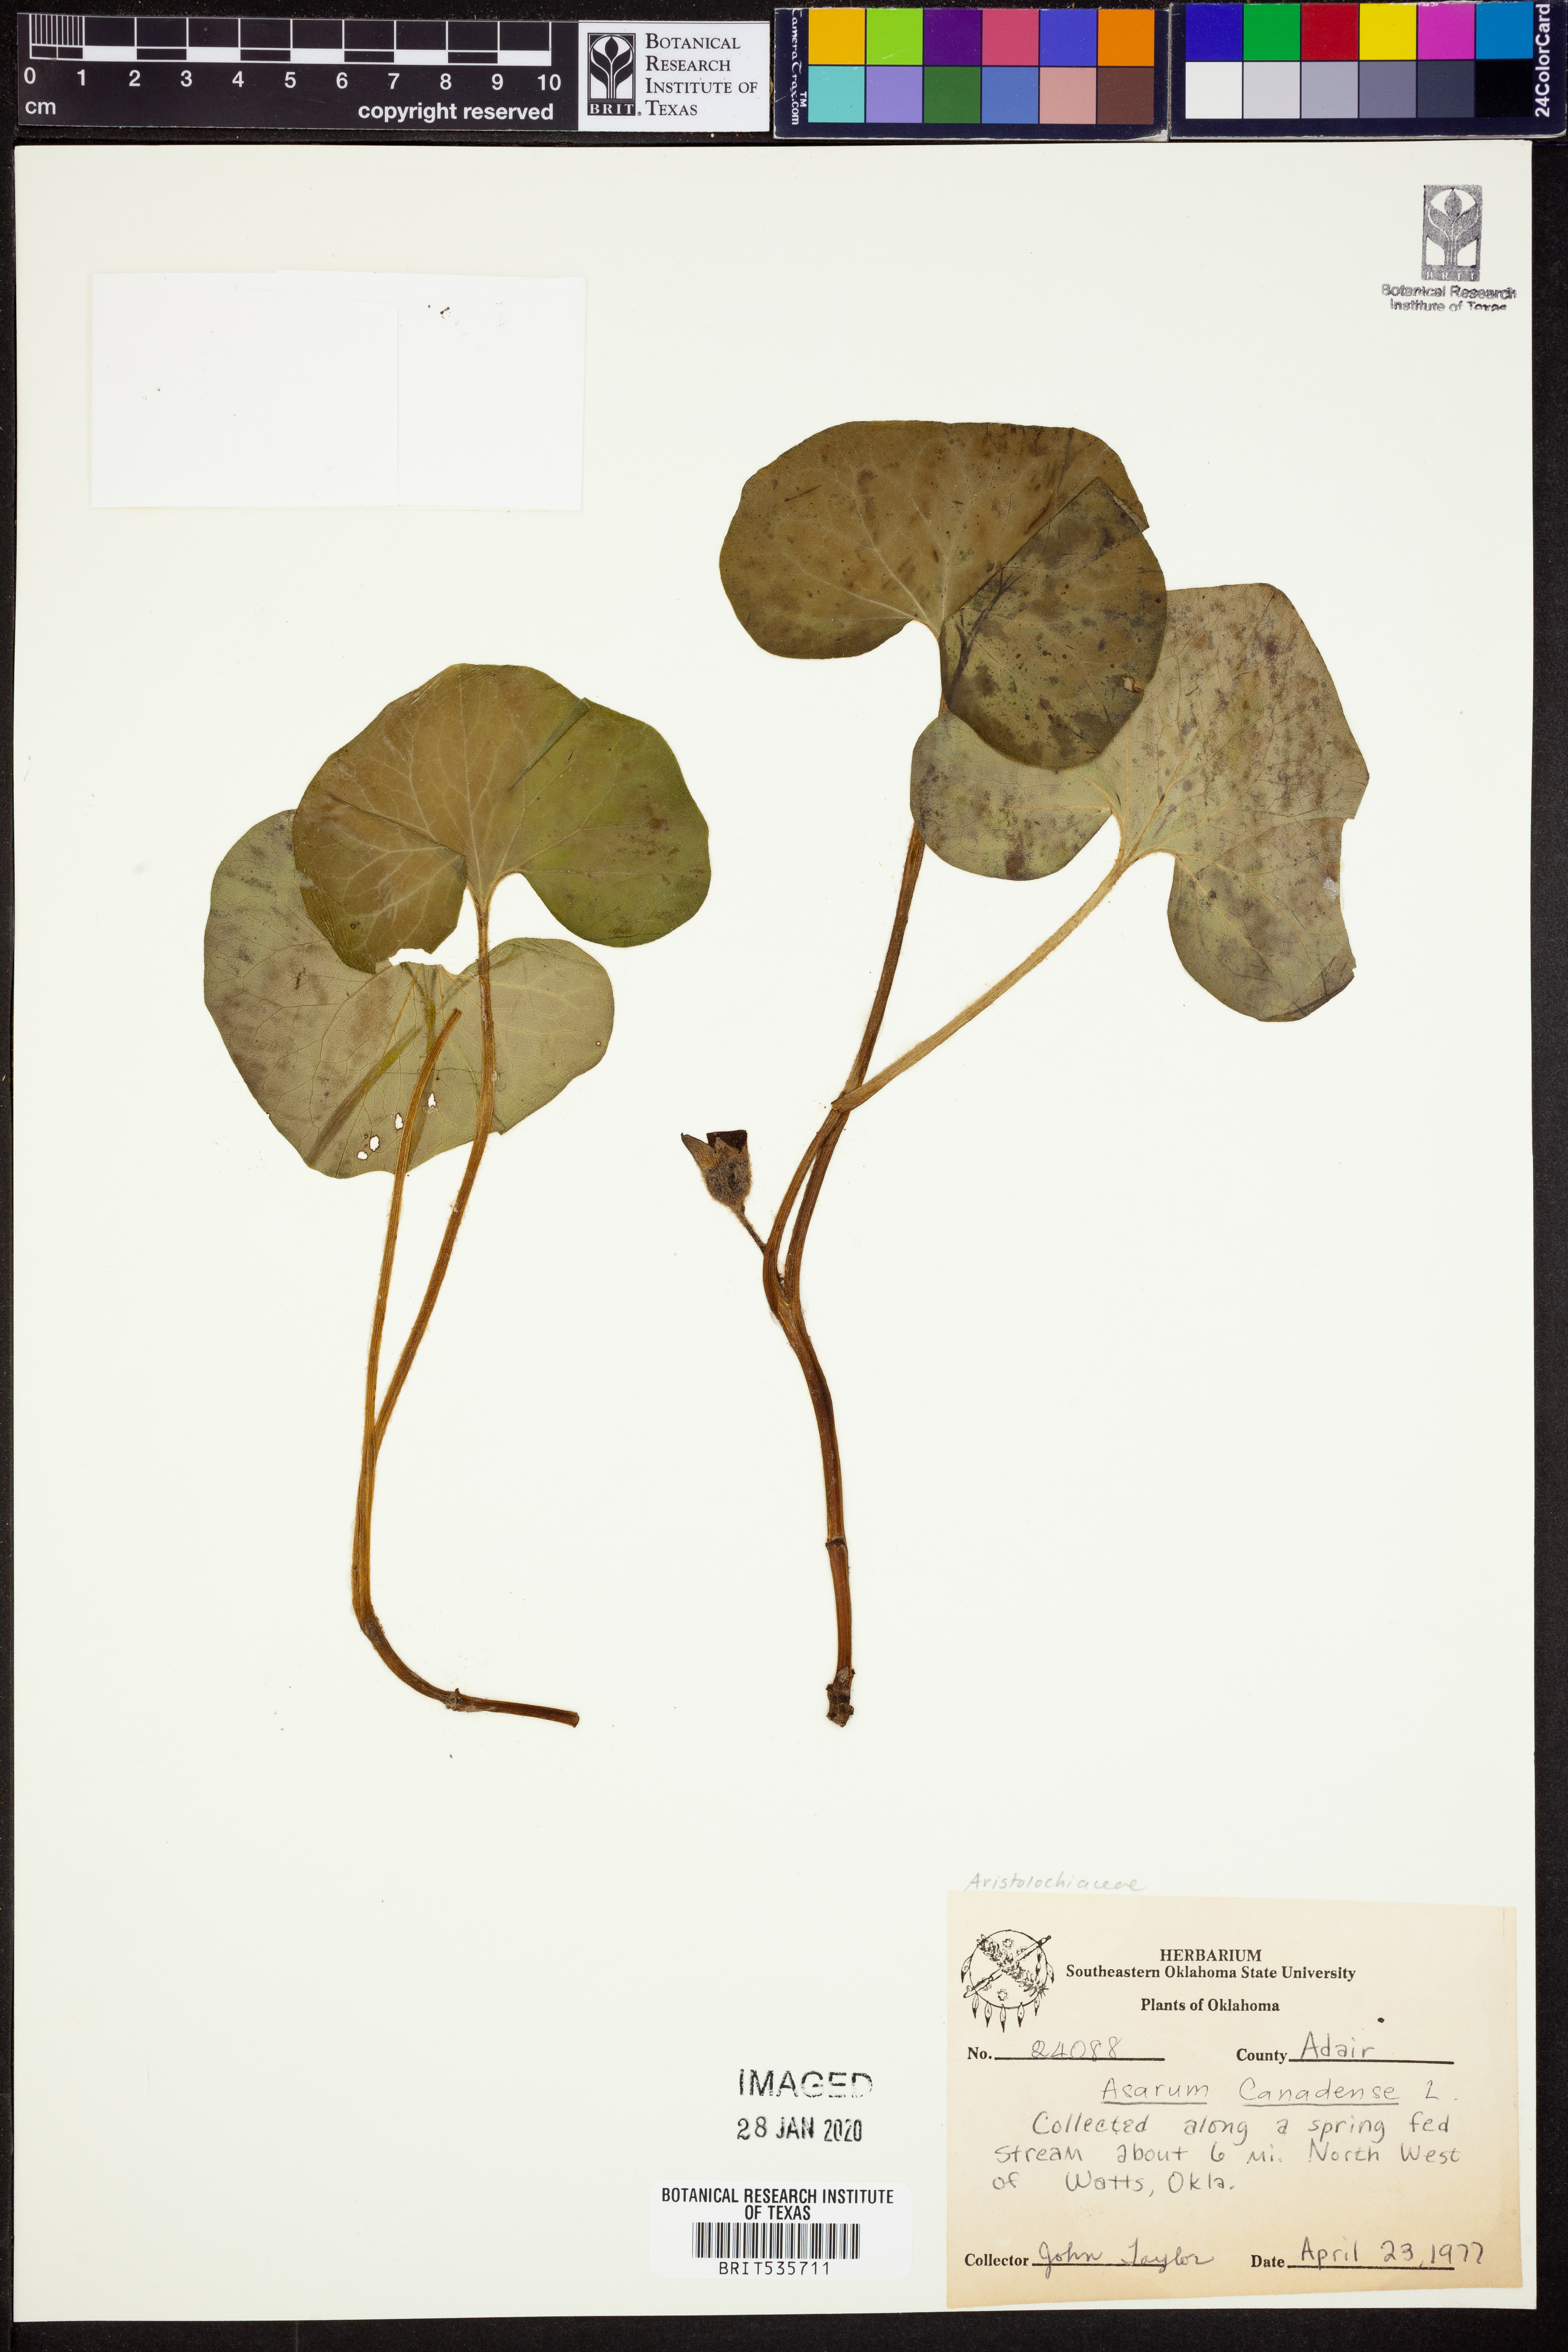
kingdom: Plantae
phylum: Tracheophyta
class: Magnoliopsida
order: Piperales
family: Aristolochiaceae
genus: Asarum
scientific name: Asarum canadense
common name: Wild ginger
